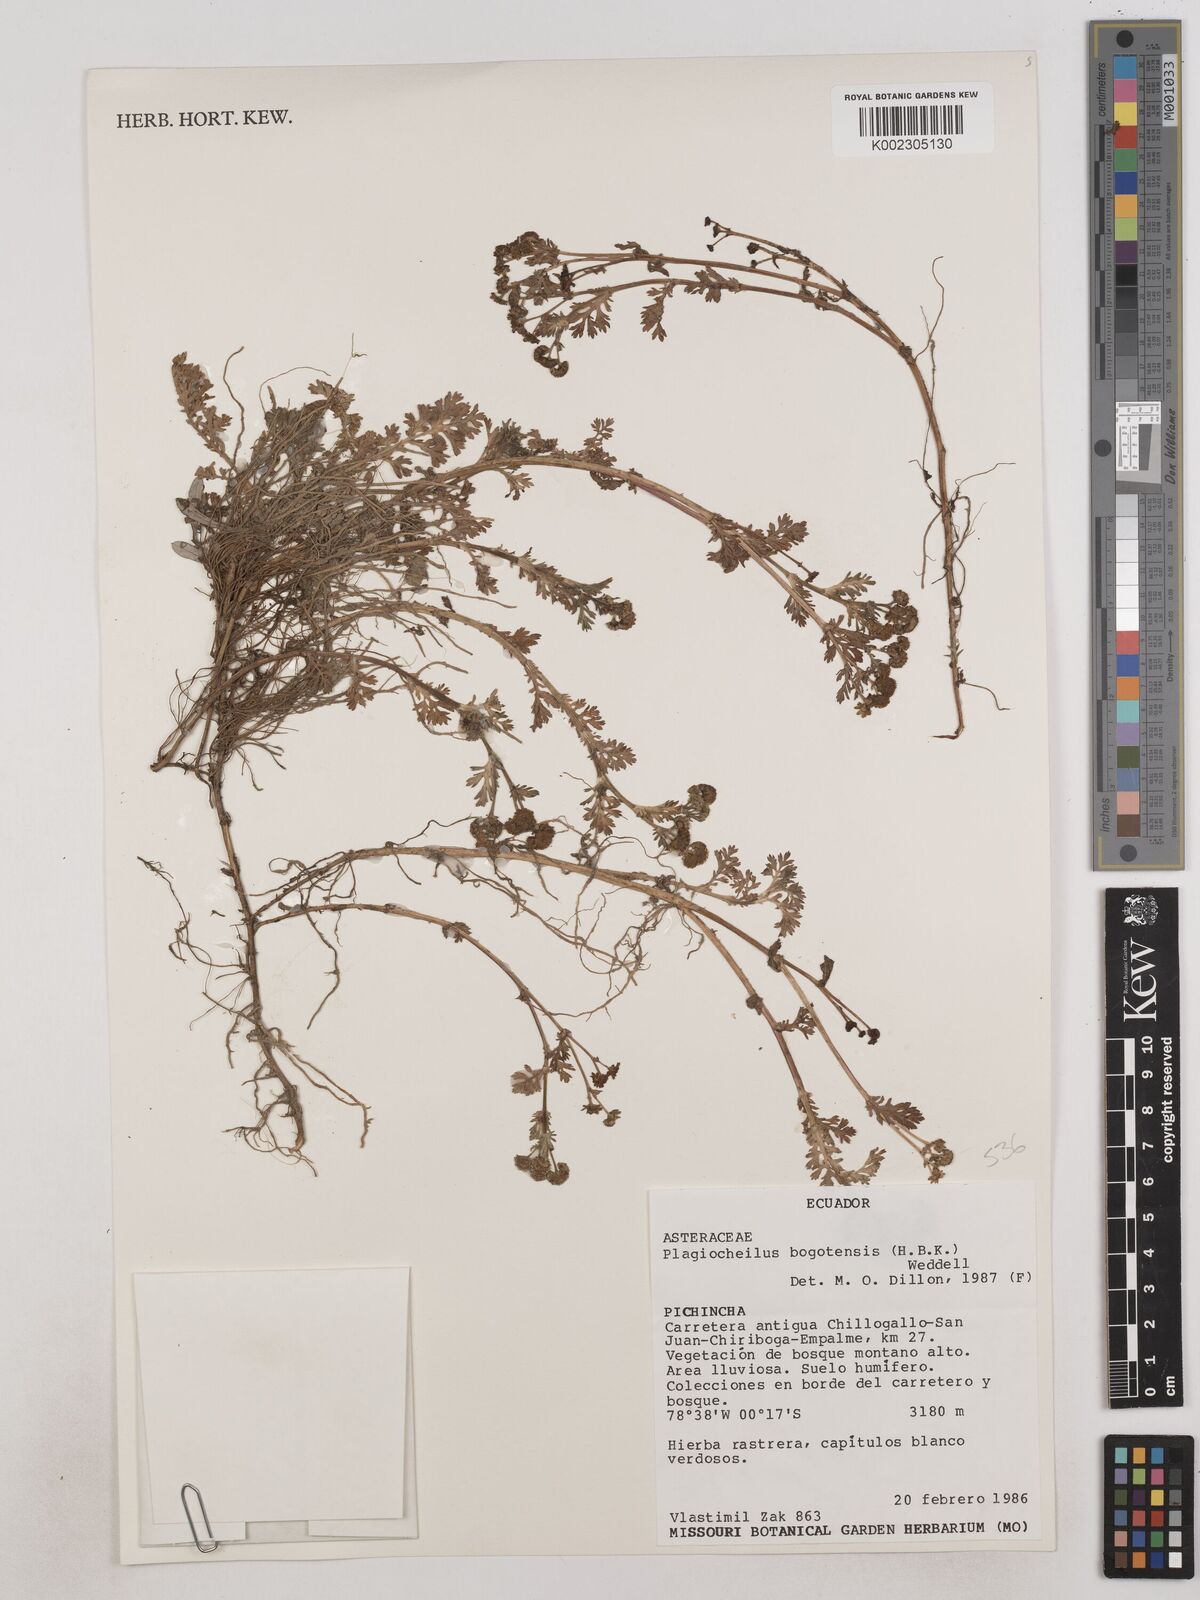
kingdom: Plantae
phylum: Tracheophyta
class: Magnoliopsida
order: Asterales
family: Asteraceae
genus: Plagiocheilus
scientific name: Plagiocheilus bogotensis
